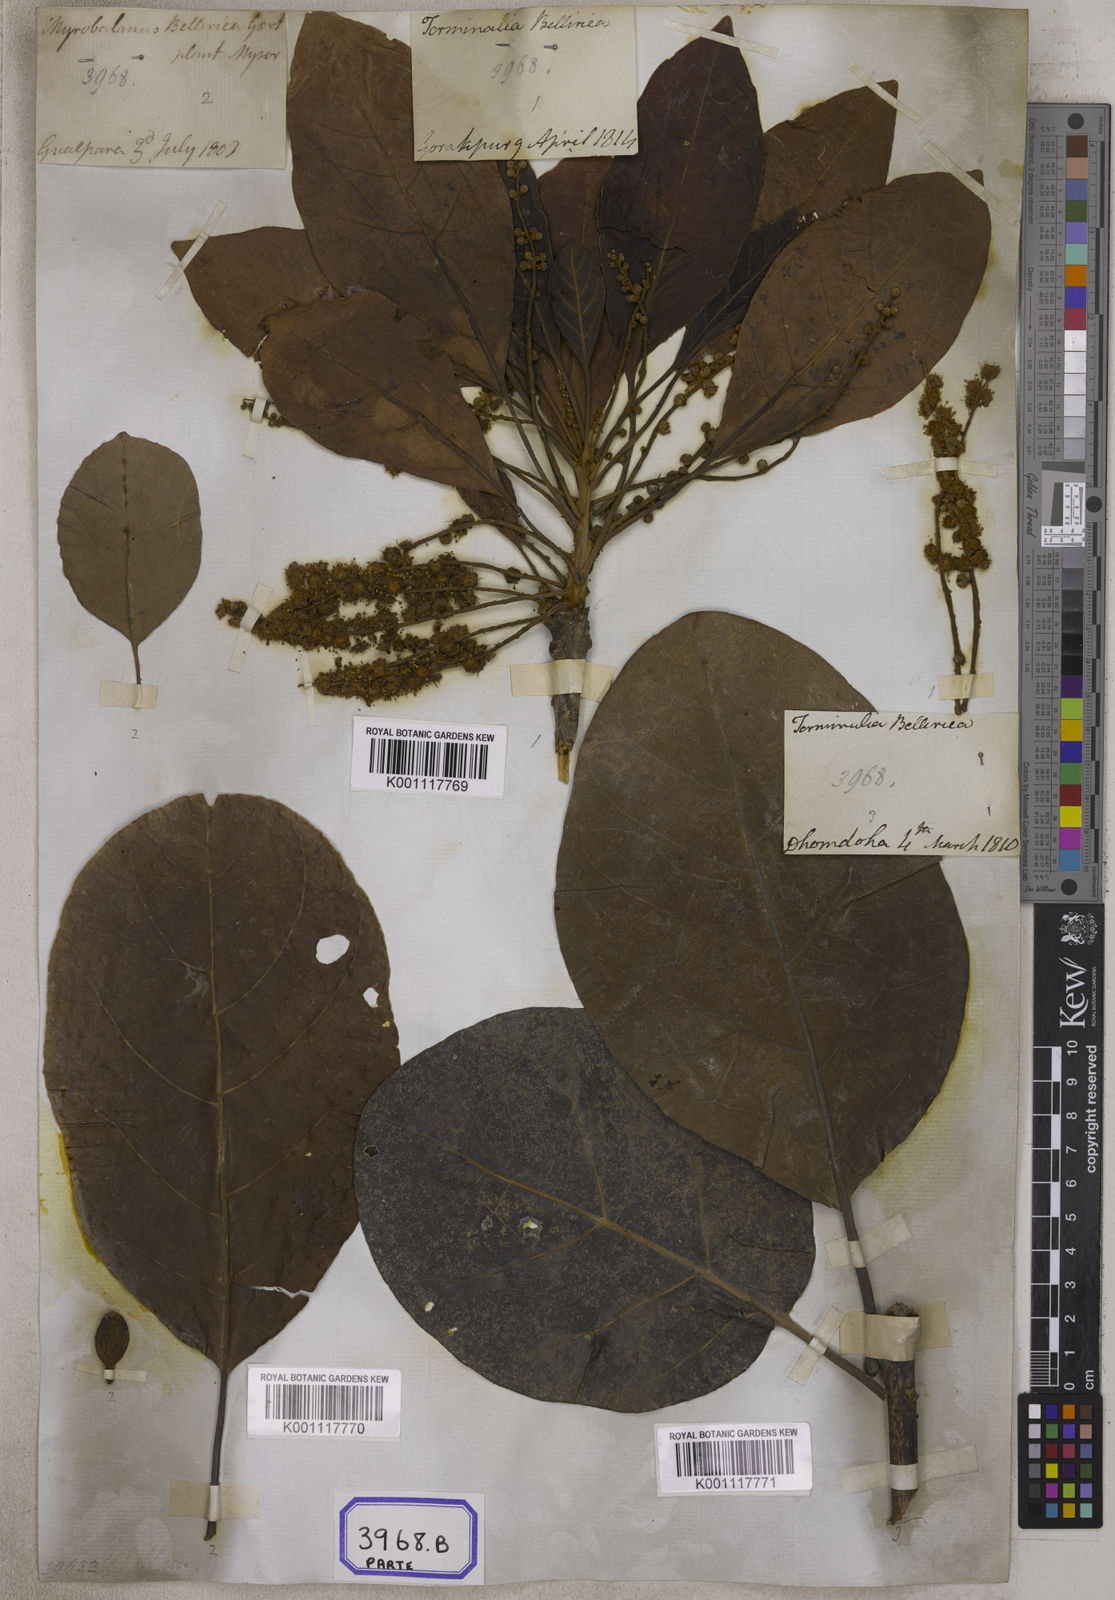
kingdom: Plantae
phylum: Tracheophyta
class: Magnoliopsida
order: Myrtales
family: Combretaceae
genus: Terminalia
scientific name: Terminalia bellirica
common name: Beleric myrobalan
